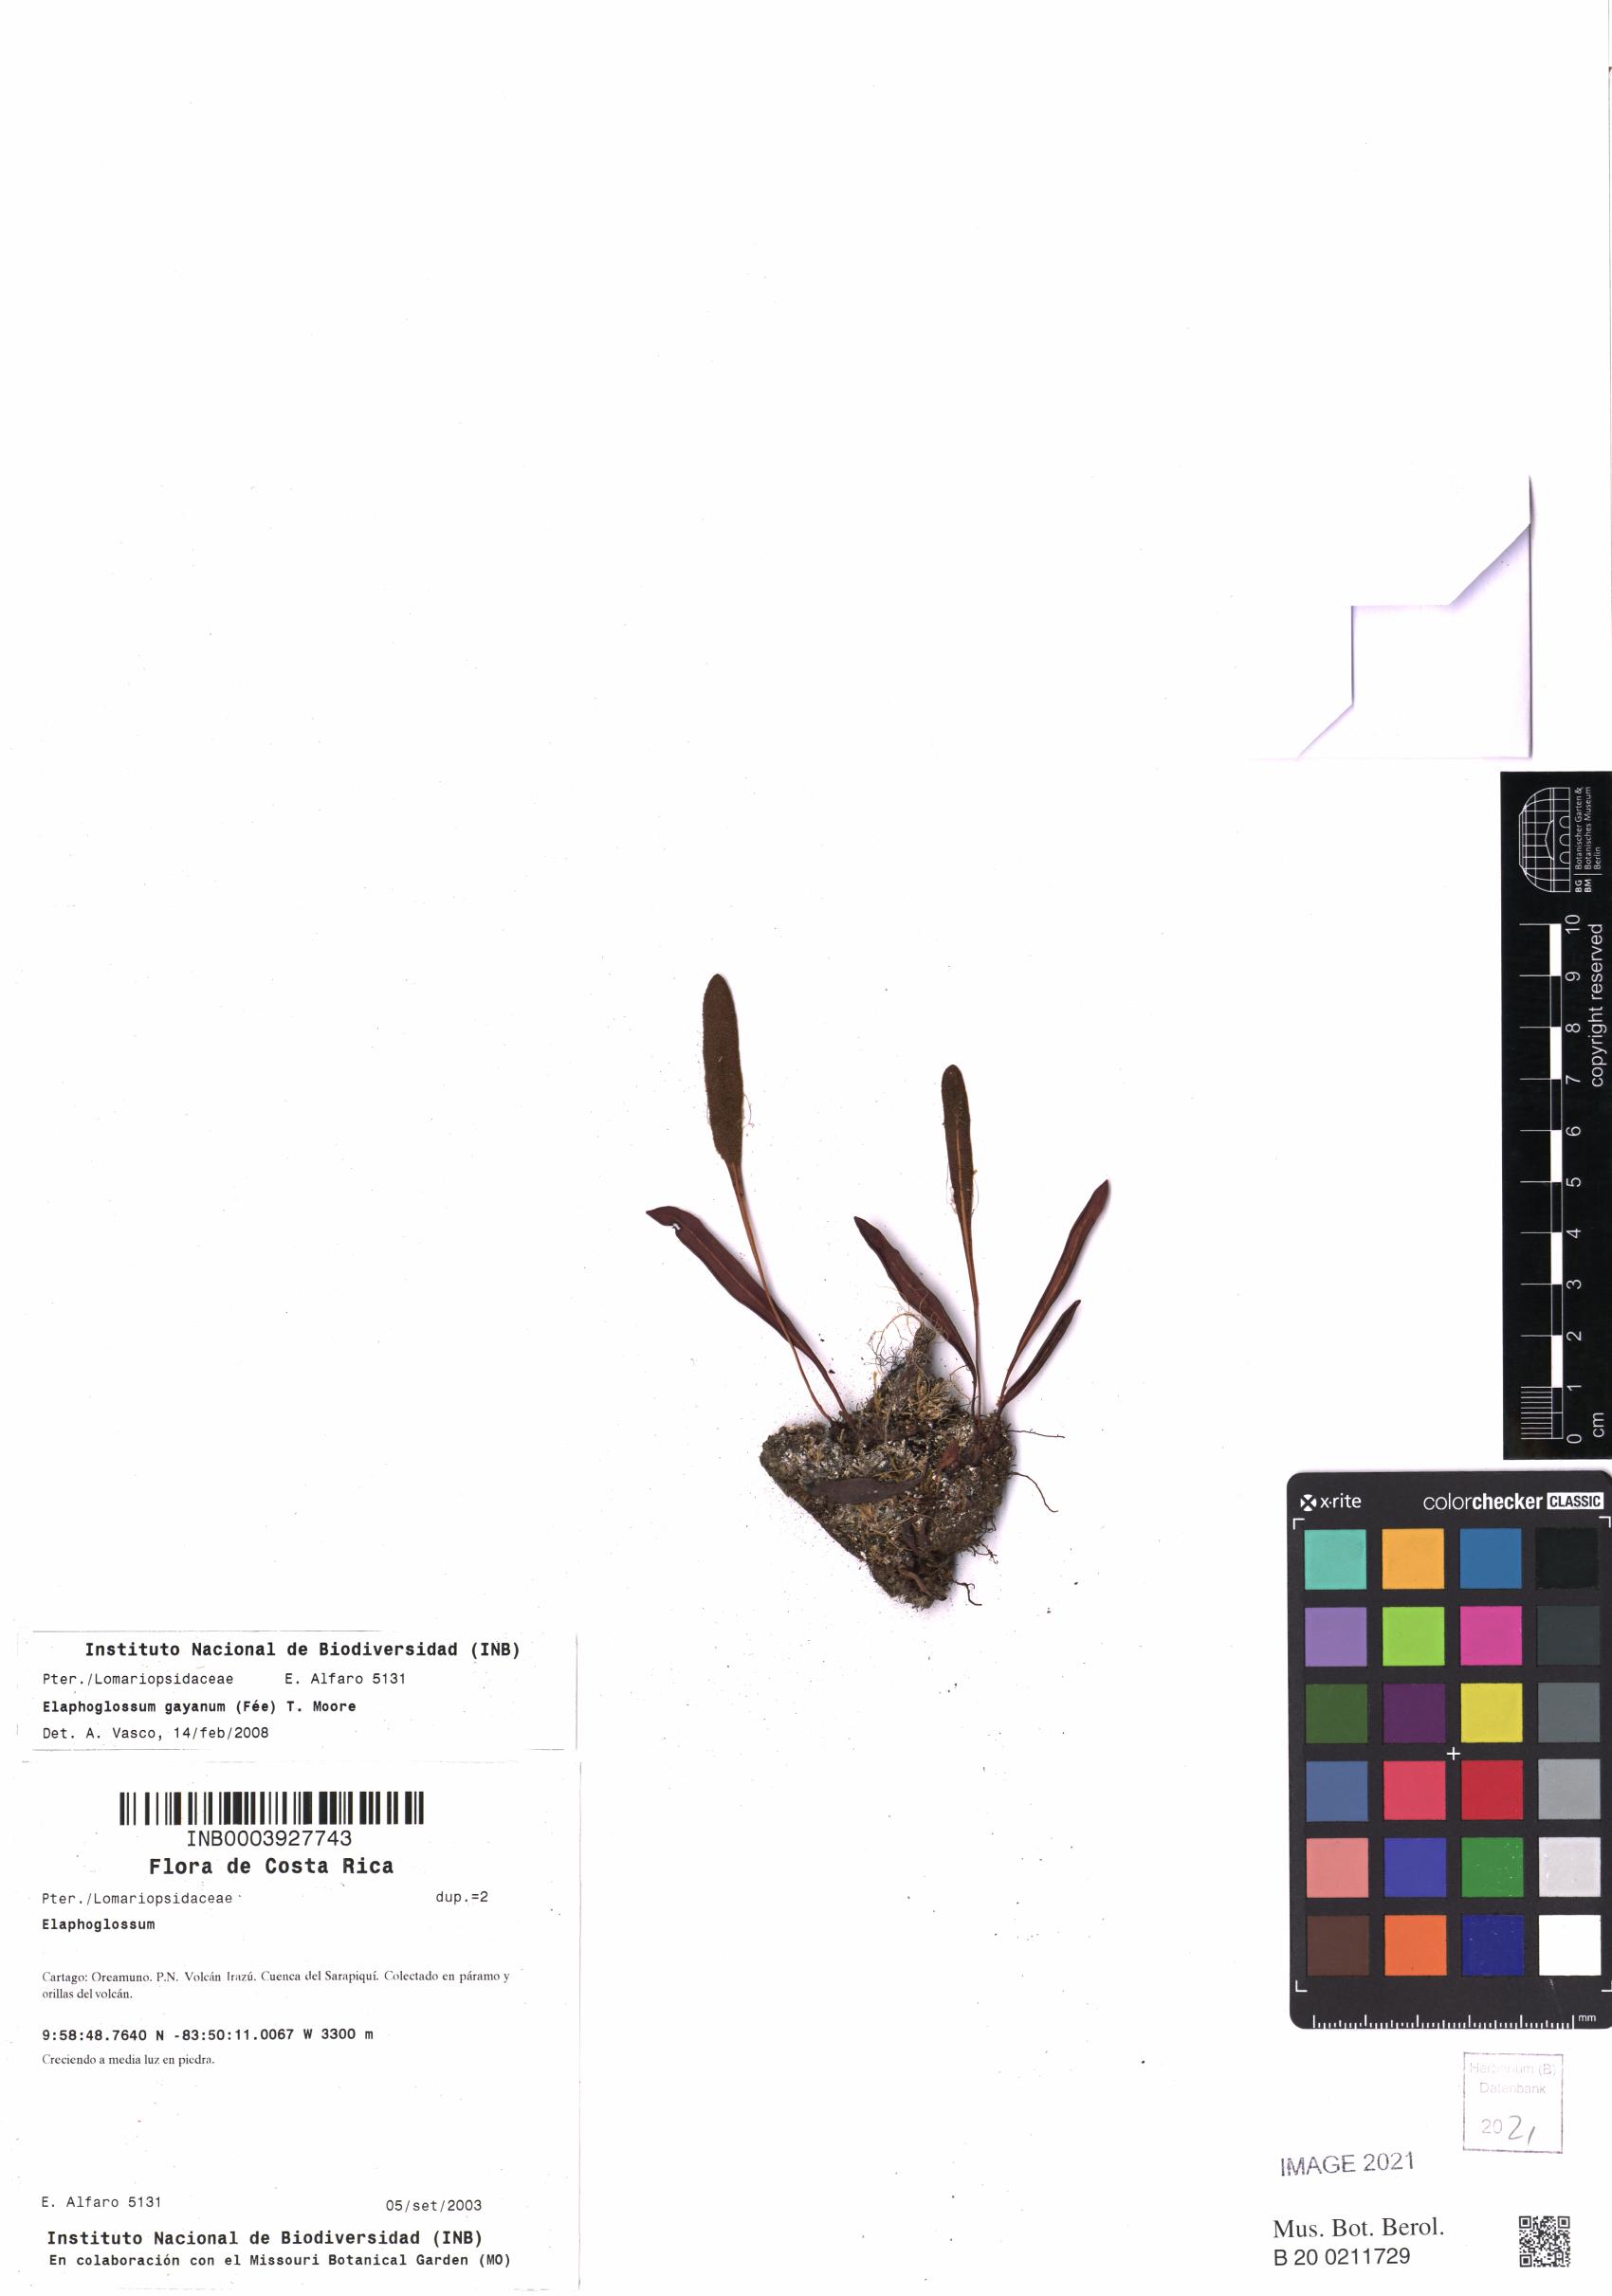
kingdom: Plantae
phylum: Tracheophyta
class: Polypodiopsida
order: Polypodiales
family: Dryopteridaceae
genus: Elaphoglossum
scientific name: Elaphoglossum gayanum
